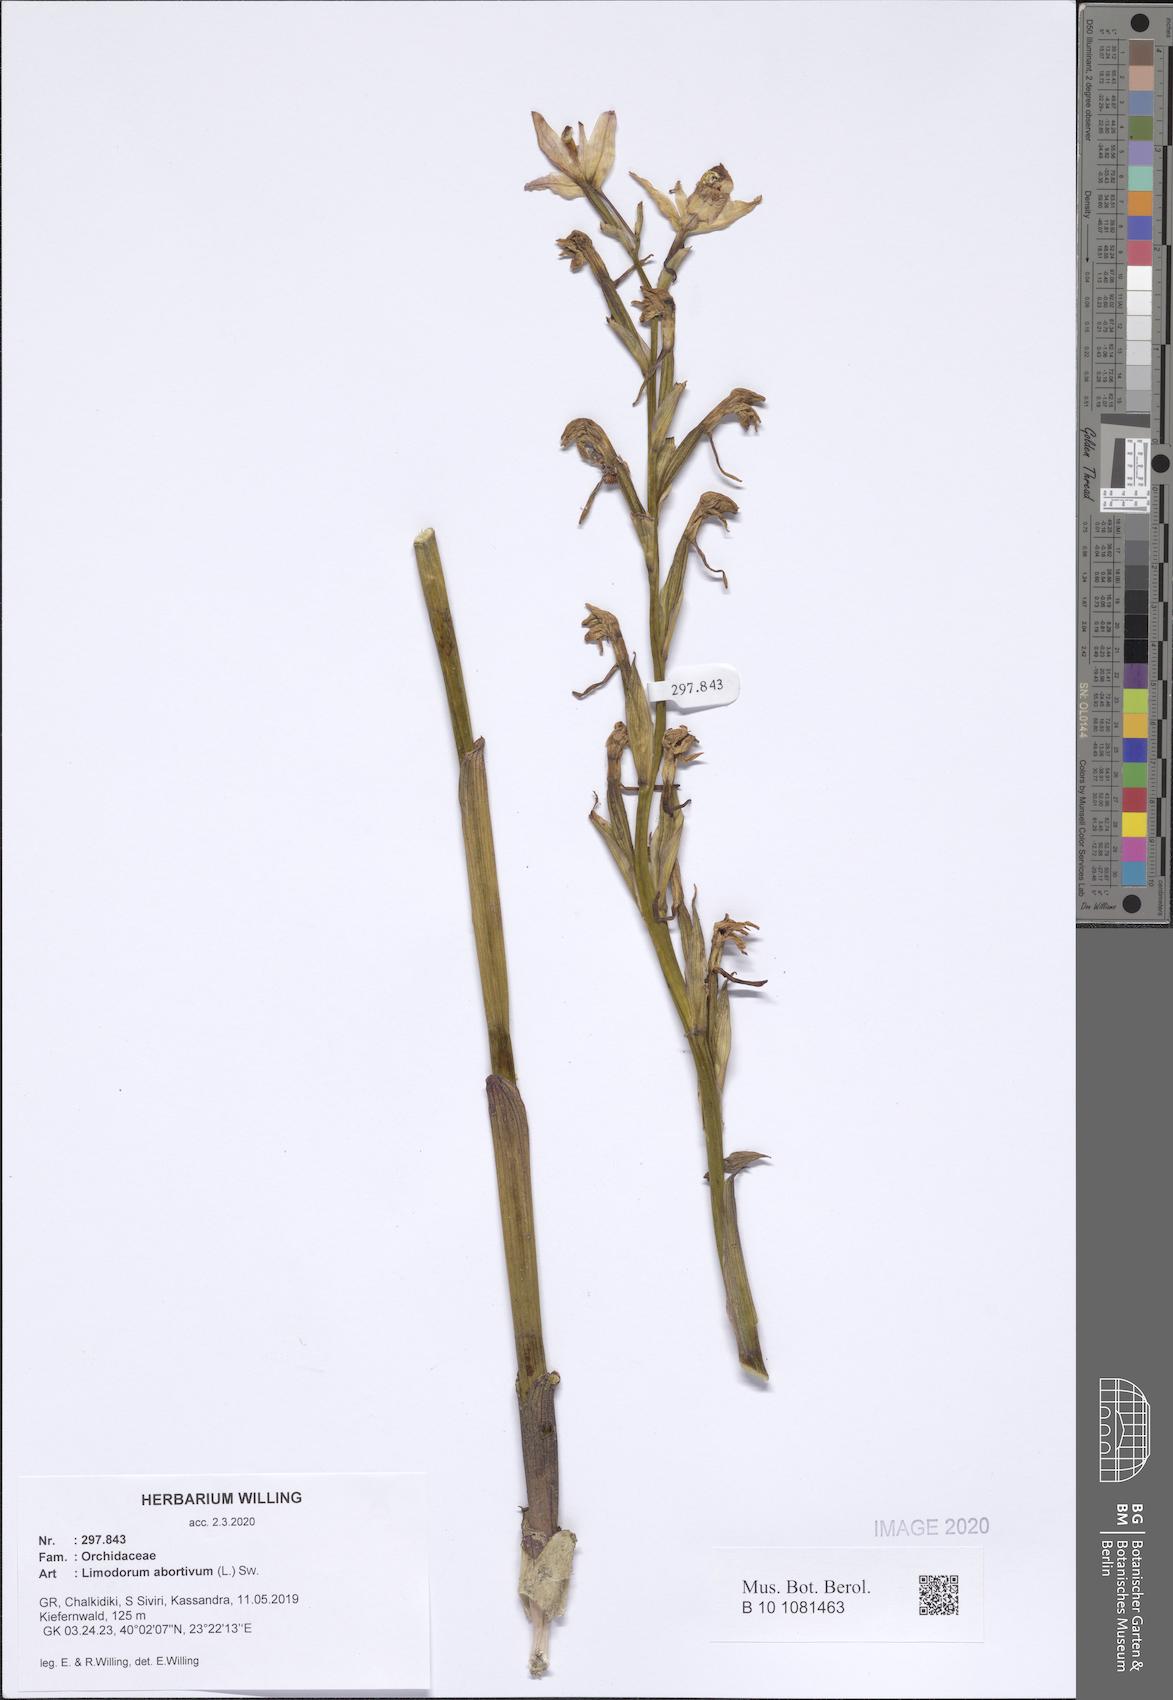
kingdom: Plantae
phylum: Tracheophyta
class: Liliopsida
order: Asparagales
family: Orchidaceae
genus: Limodorum
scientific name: Limodorum abortivum
